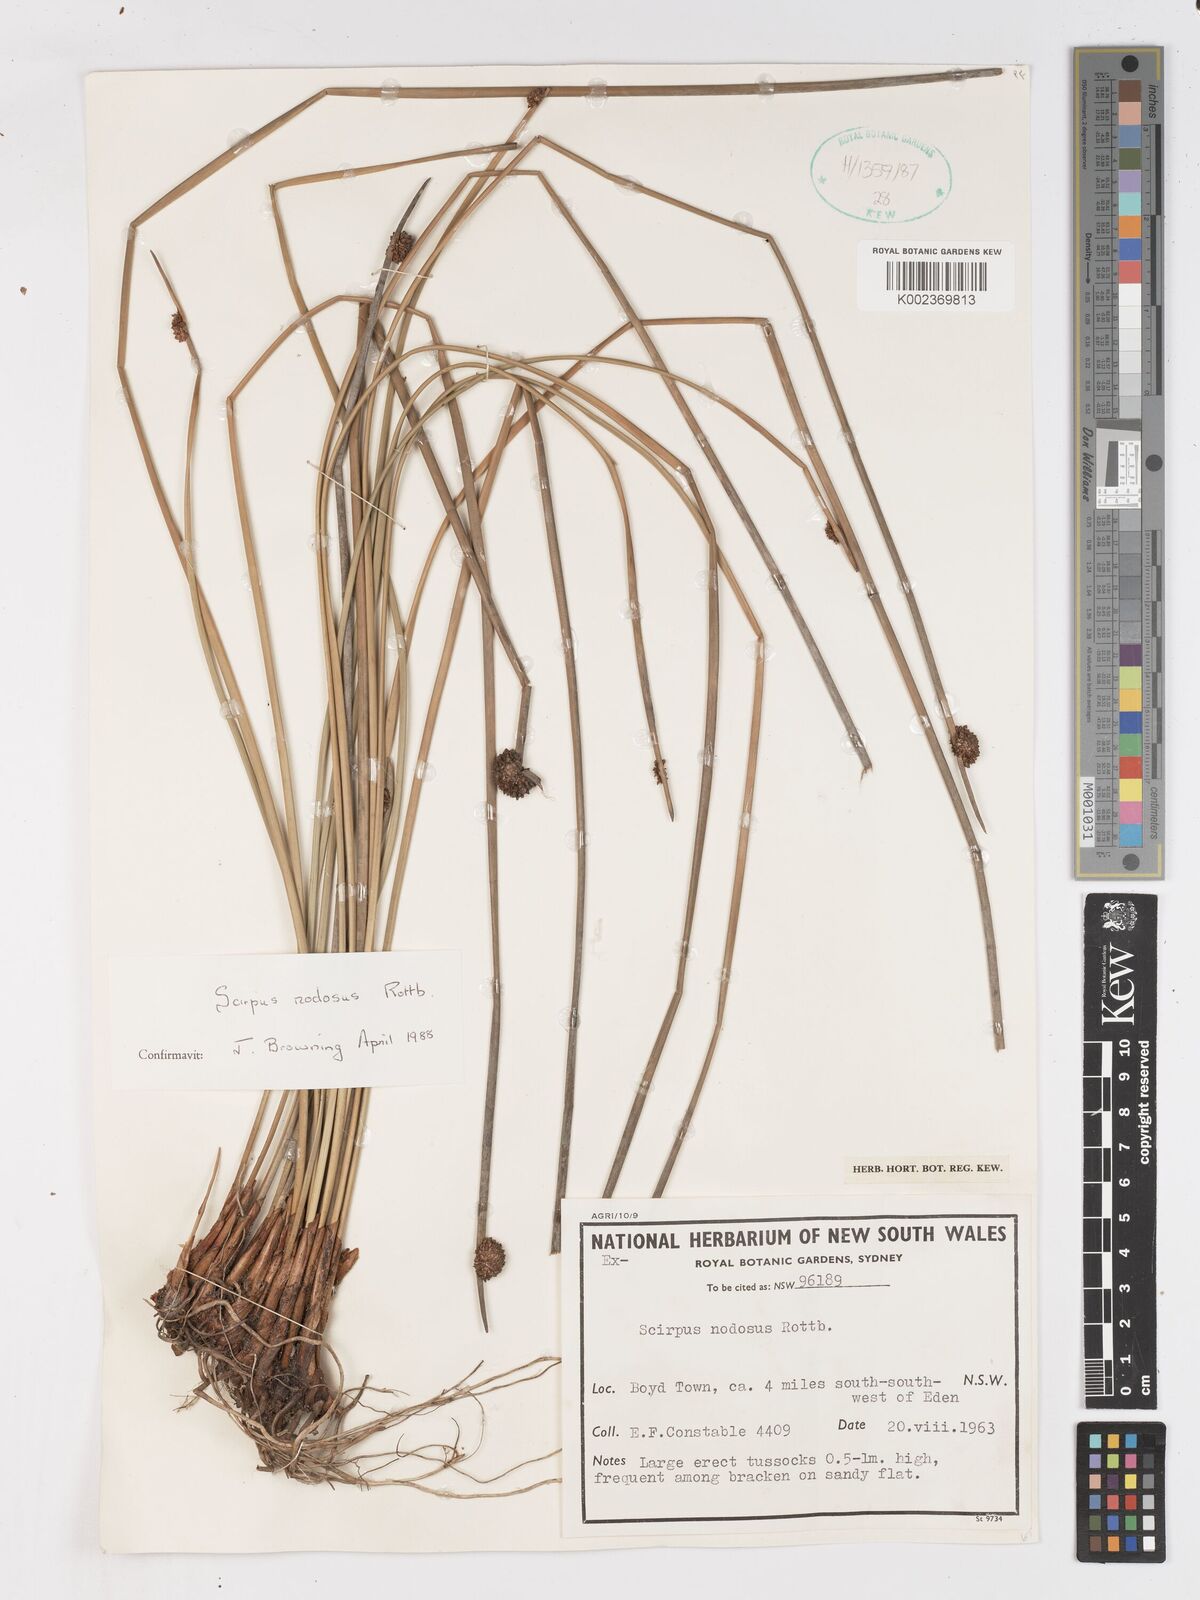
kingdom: Plantae
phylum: Tracheophyta
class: Liliopsida
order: Poales
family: Cyperaceae
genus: Ficinia
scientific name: Ficinia nodosa
